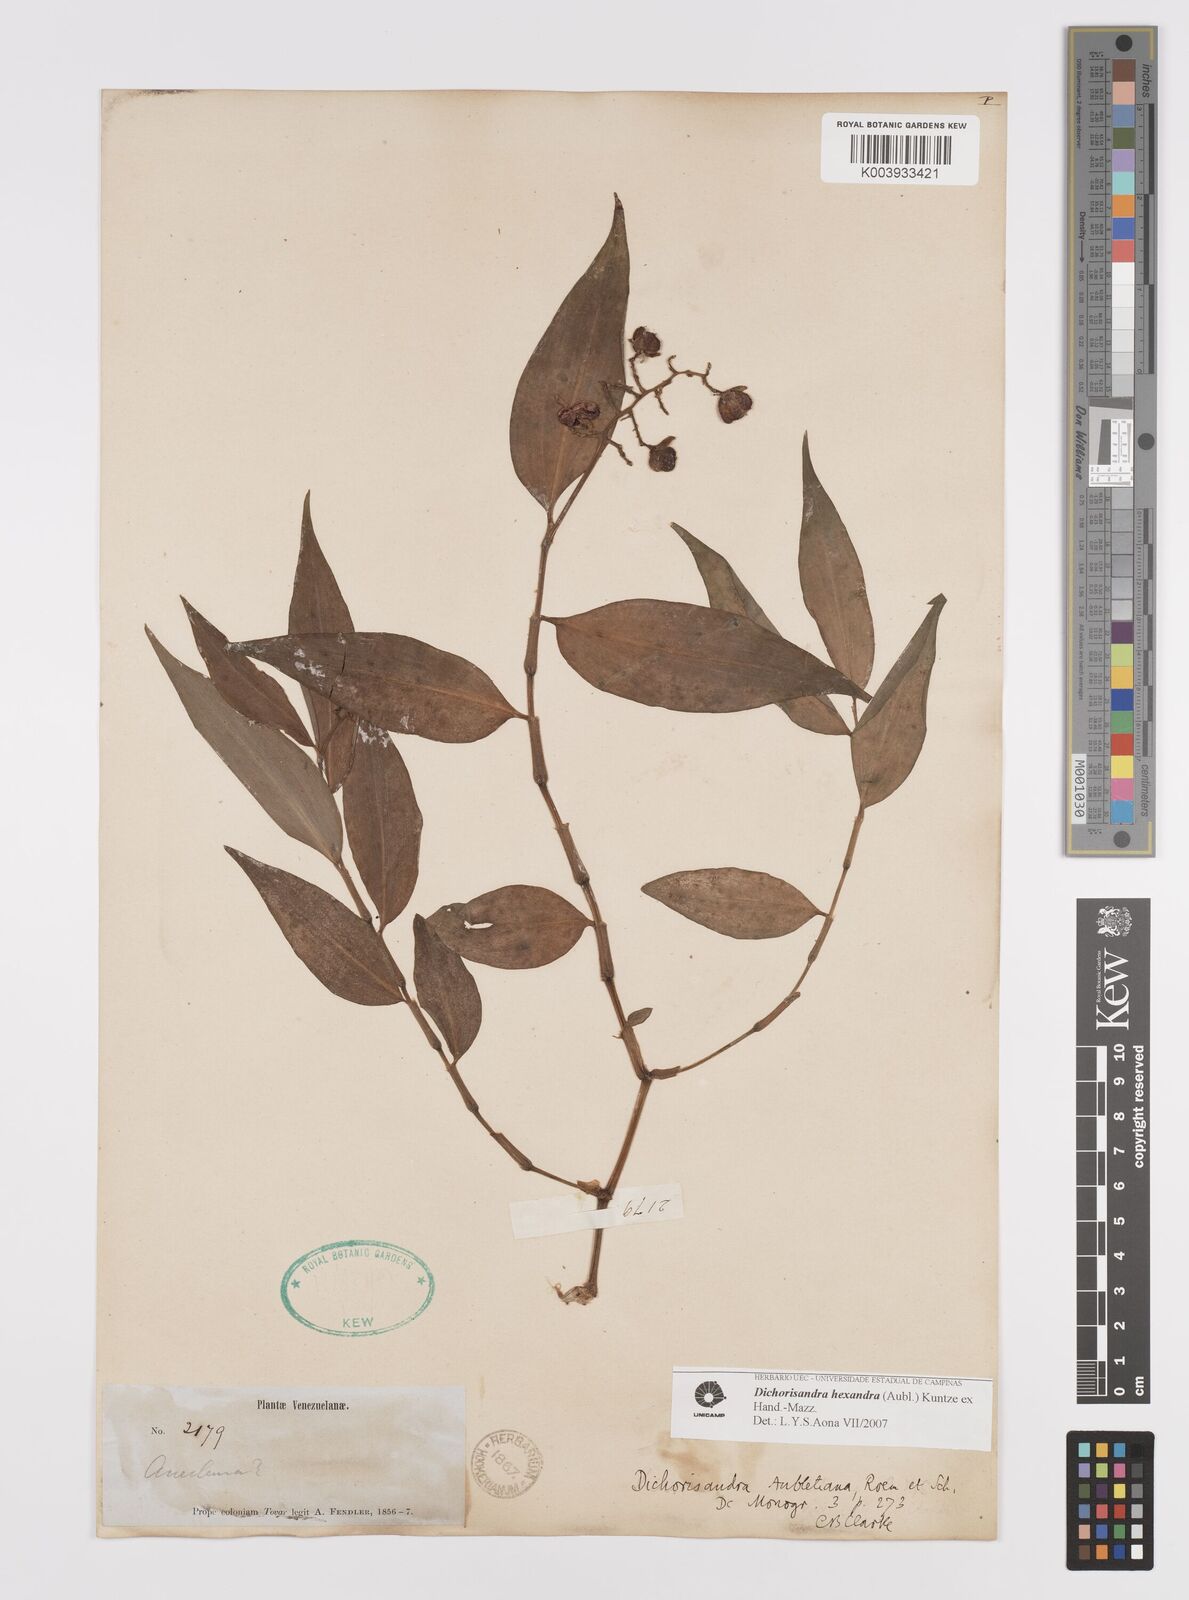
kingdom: Plantae
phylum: Tracheophyta
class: Liliopsida
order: Commelinales
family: Commelinaceae
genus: Dichorisandra
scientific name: Dichorisandra hexandra
